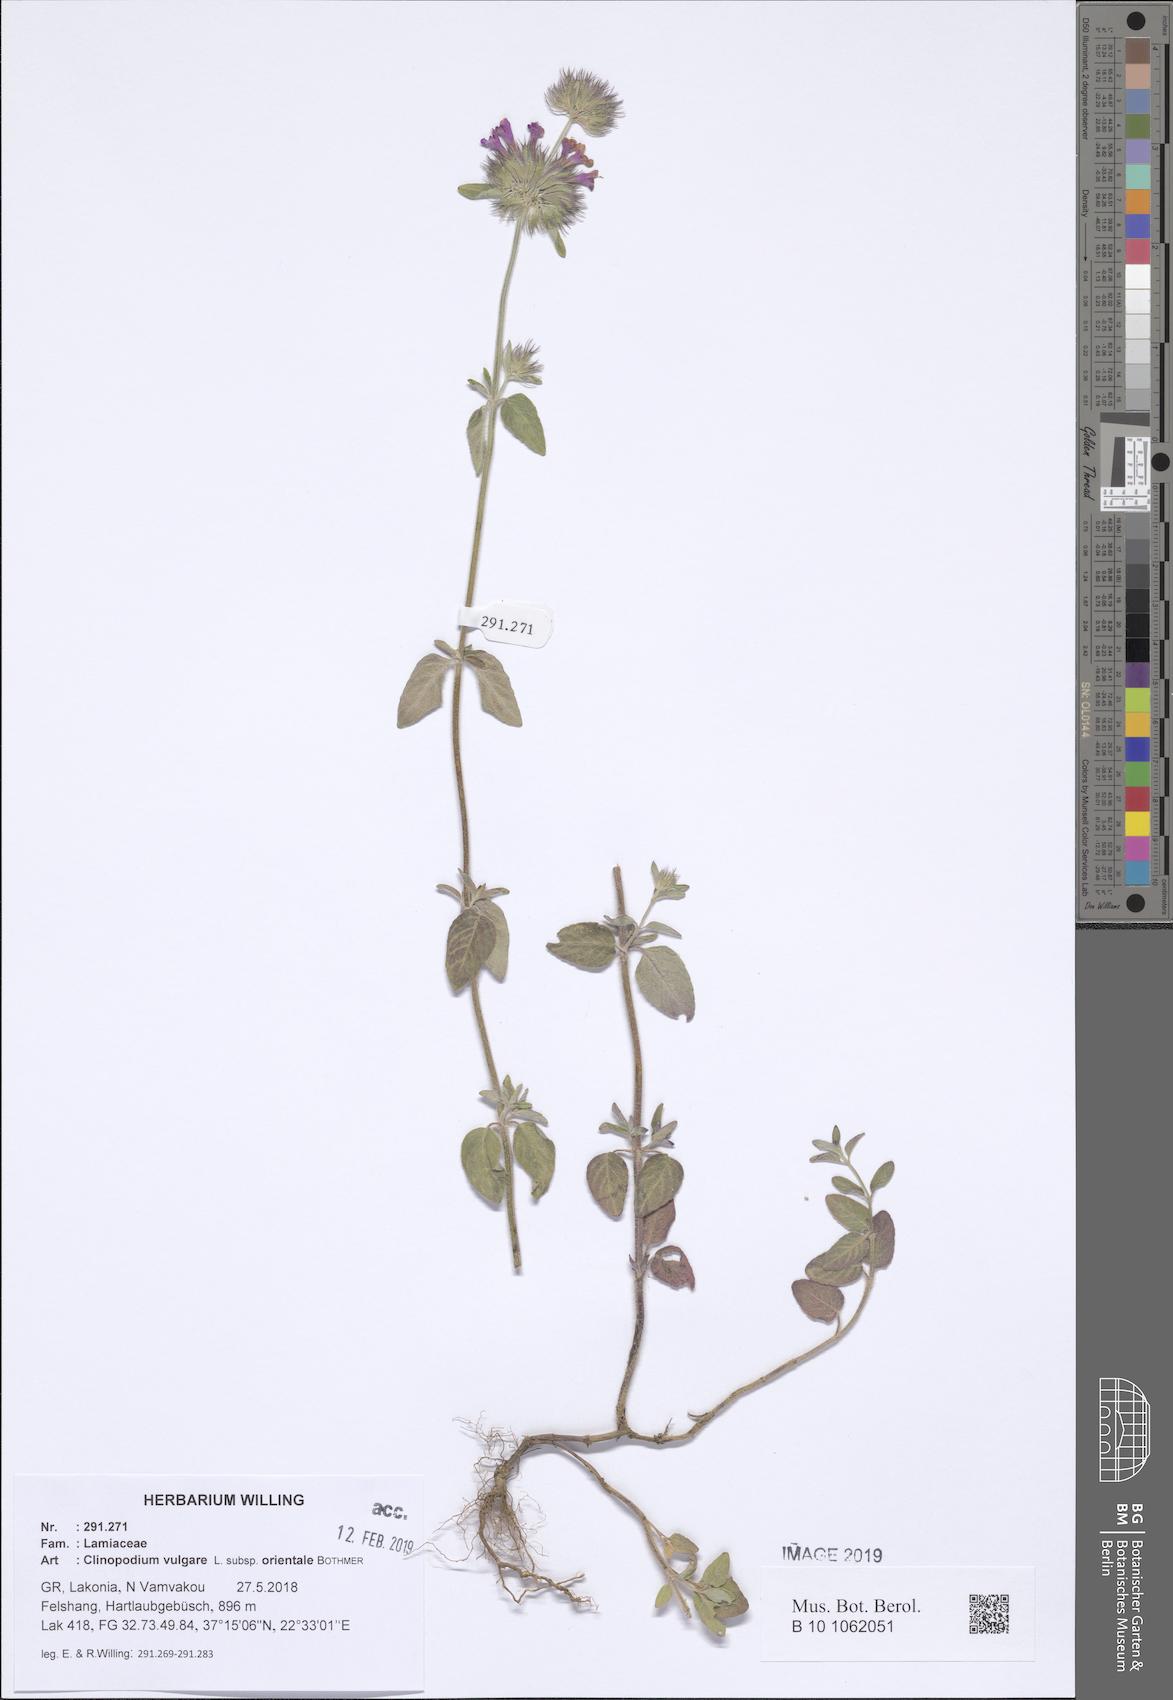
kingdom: Plantae
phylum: Tracheophyta
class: Magnoliopsida
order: Lamiales
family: Lamiaceae
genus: Clinopodium
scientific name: Clinopodium vulgare
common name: Wild basil
